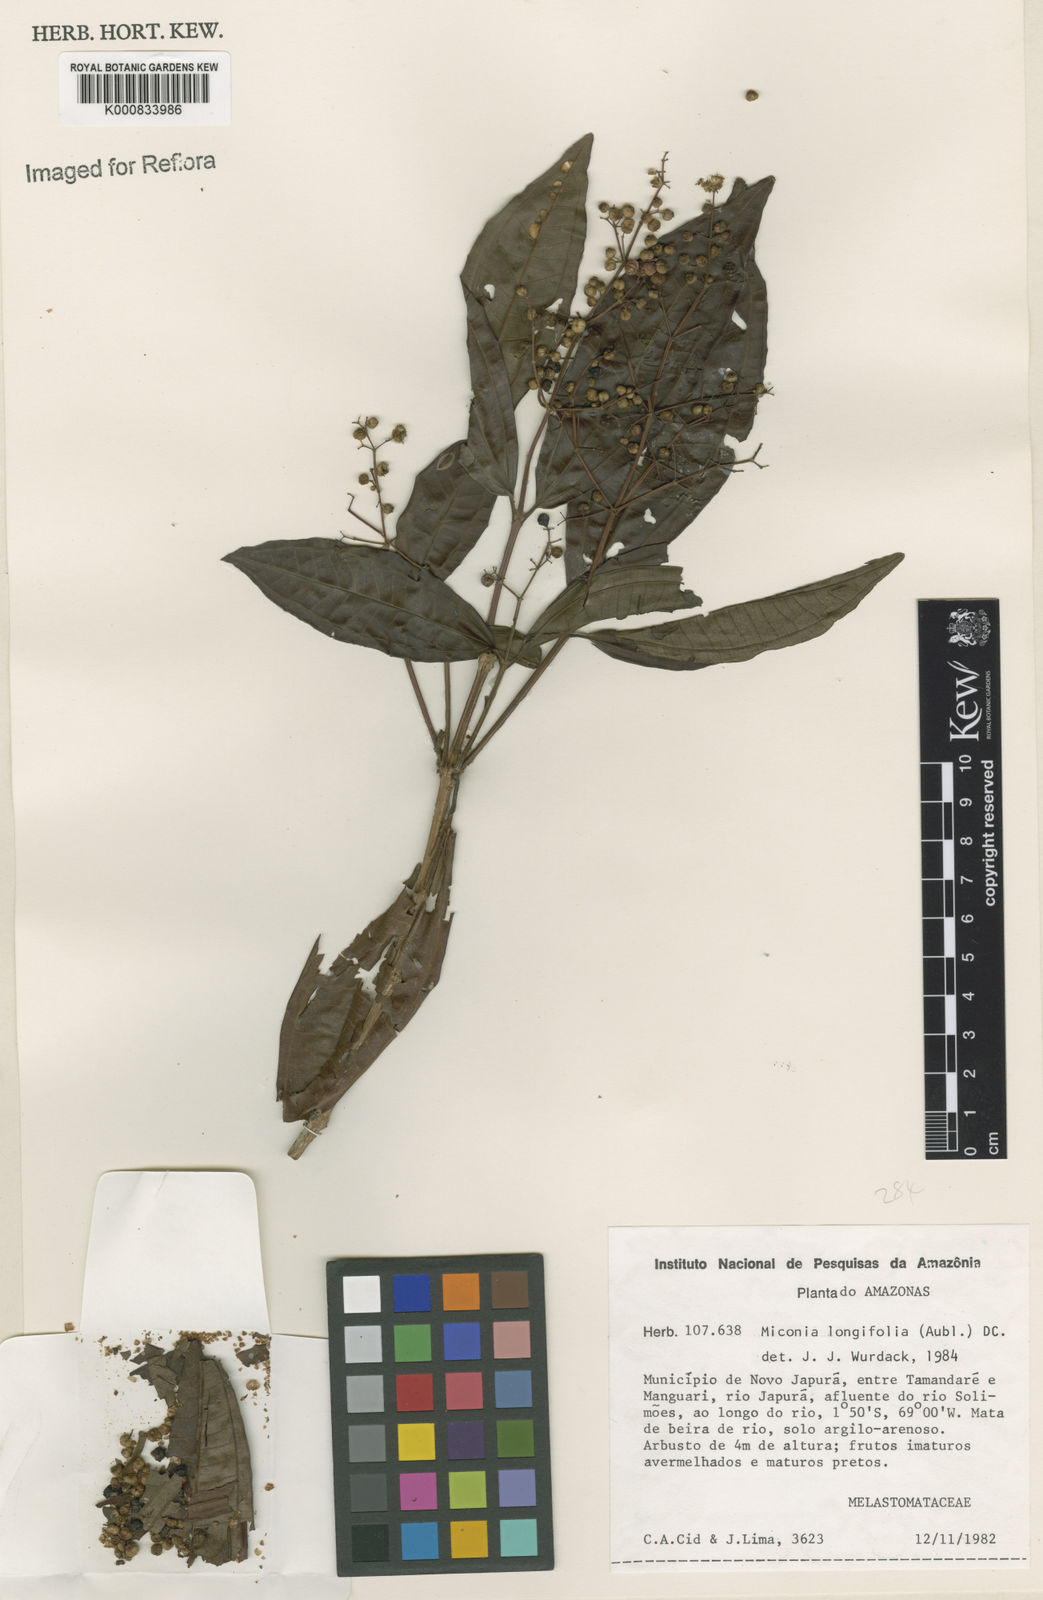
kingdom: Plantae
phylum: Tracheophyta
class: Magnoliopsida
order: Myrtales
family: Melastomataceae
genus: Miconia
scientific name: Miconia longifolia
